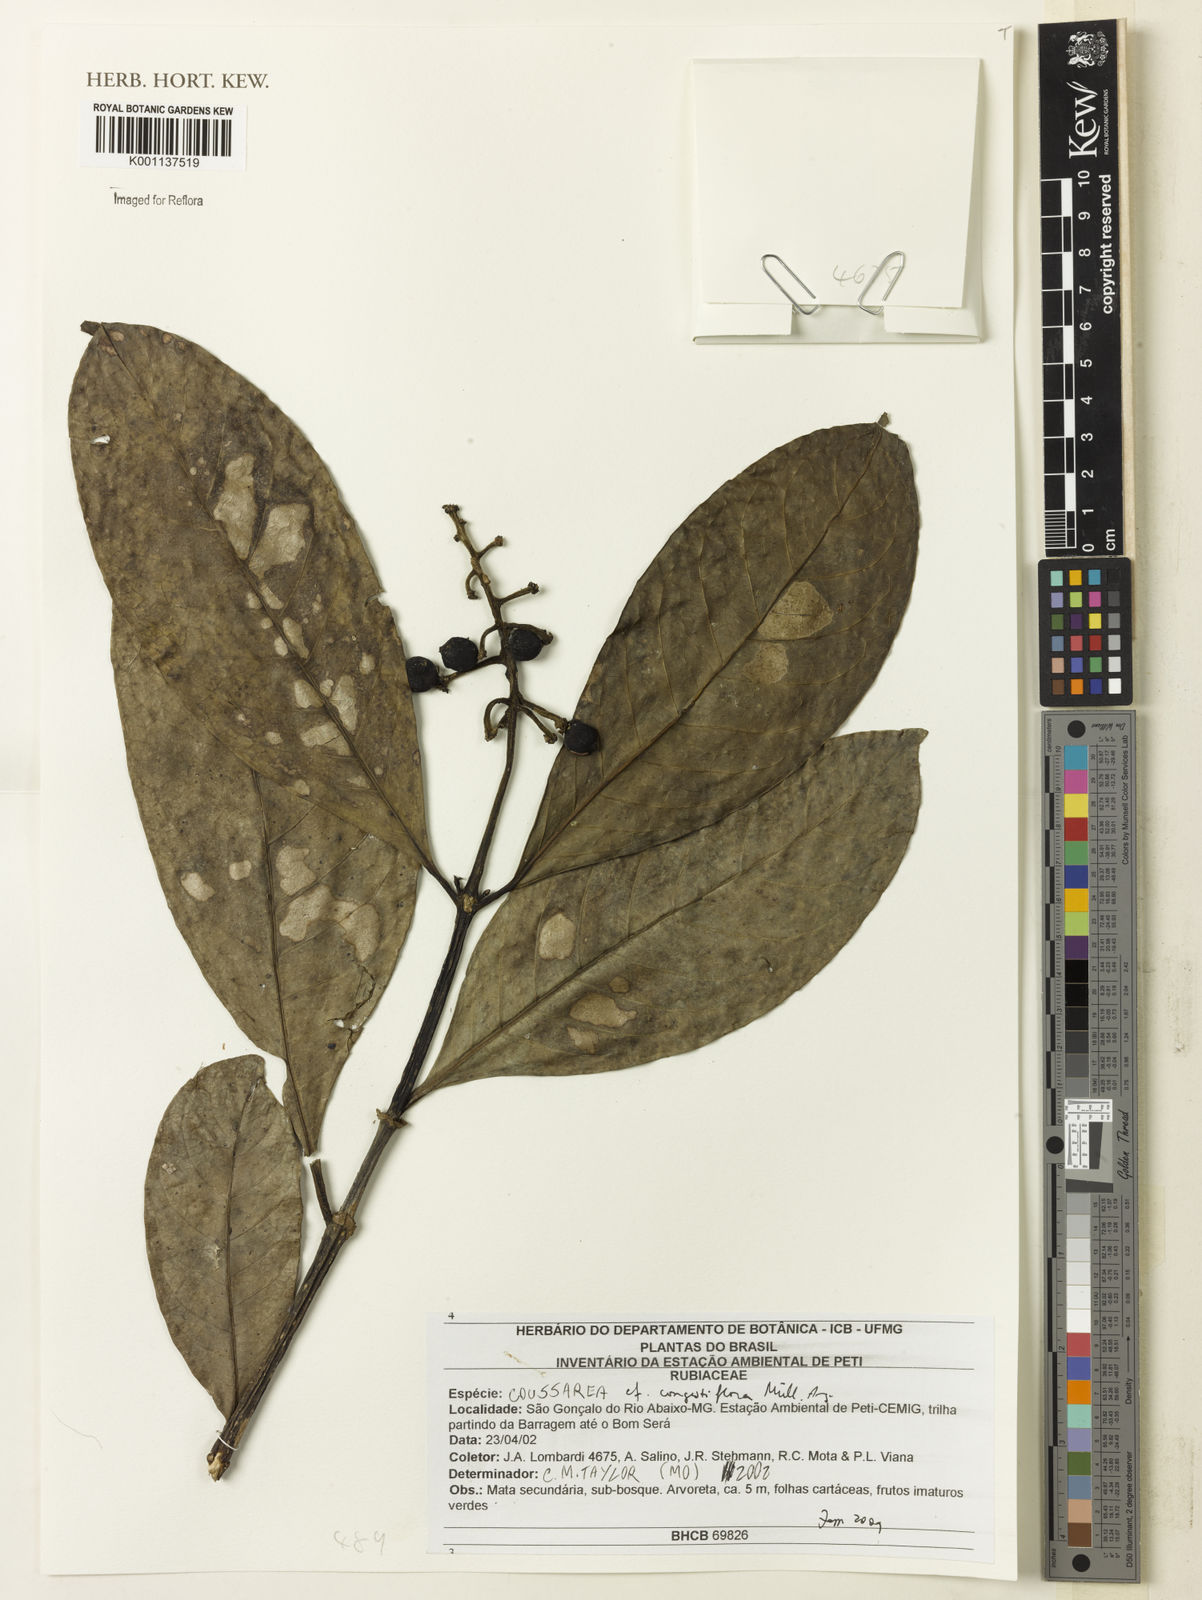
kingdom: Plantae
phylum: Tracheophyta
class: Magnoliopsida
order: Gentianales
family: Rubiaceae
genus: Coussarea
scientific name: Coussarea
